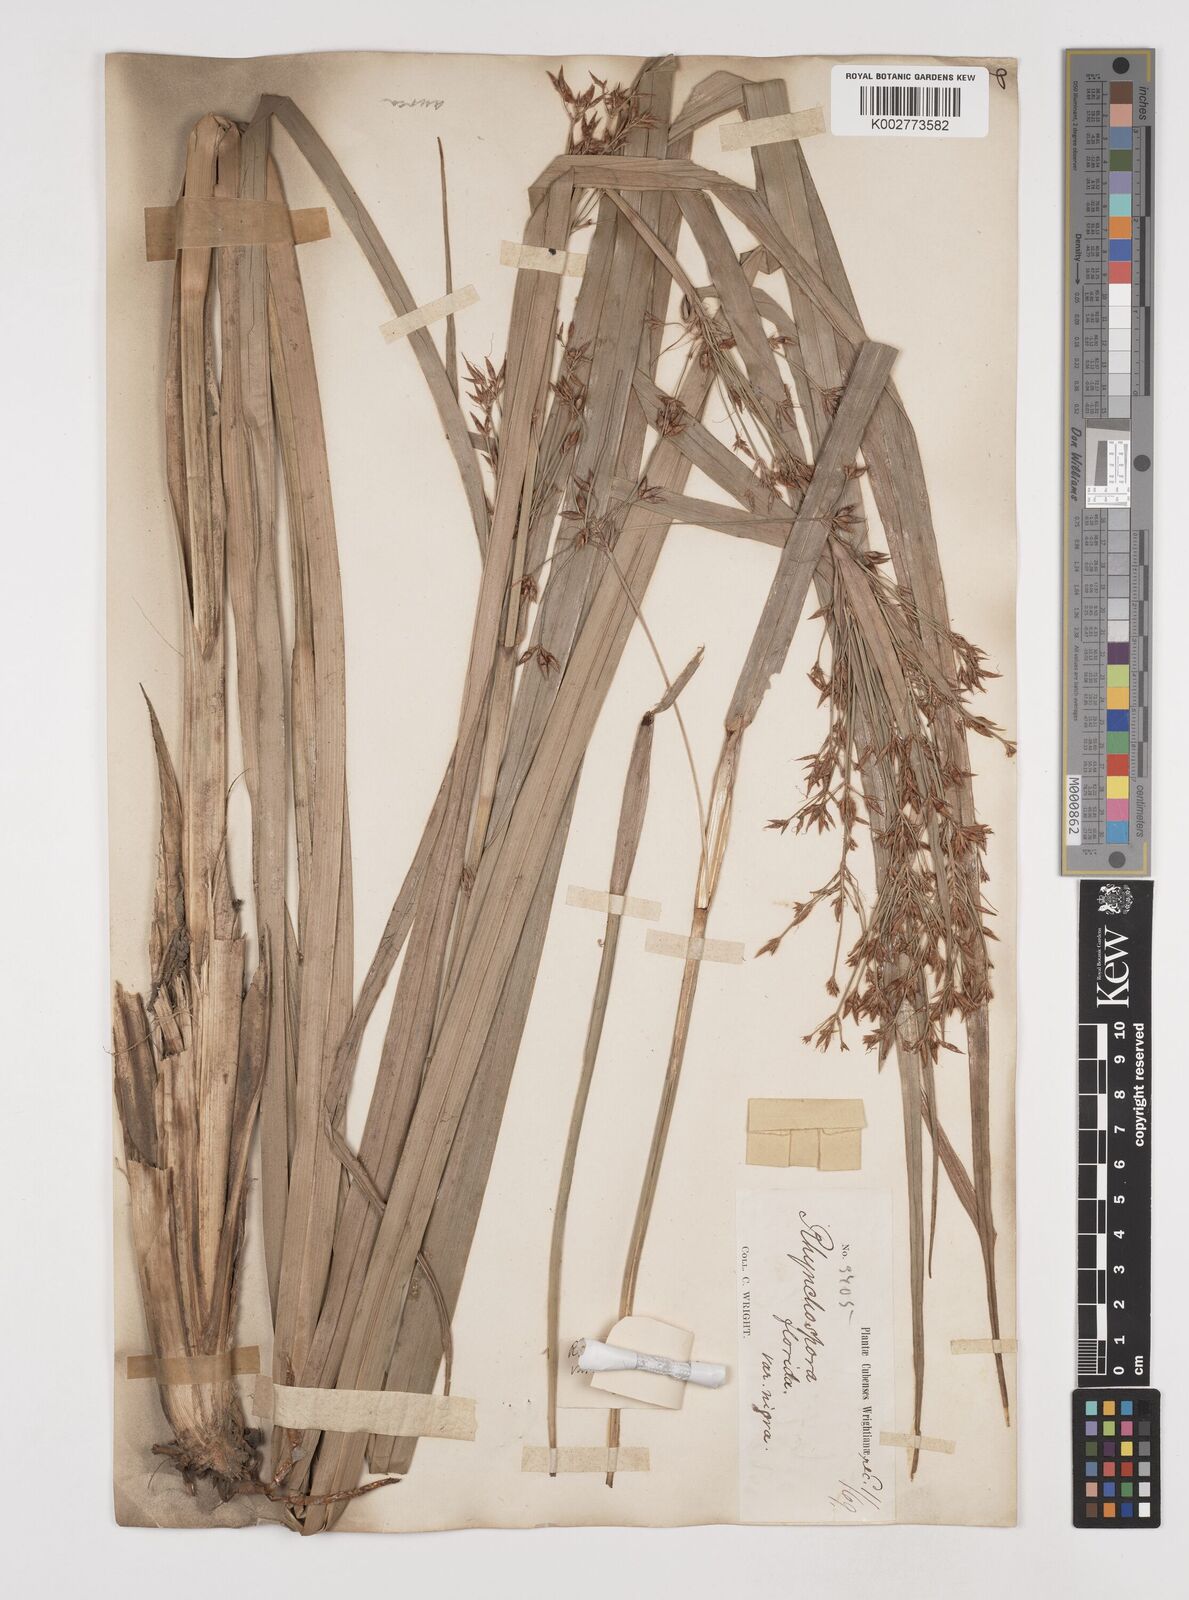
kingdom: Plantae
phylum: Tracheophyta
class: Liliopsida
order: Poales
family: Cyperaceae
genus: Rhynchospora
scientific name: Rhynchospora corymbosa
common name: Golden beak sedge
